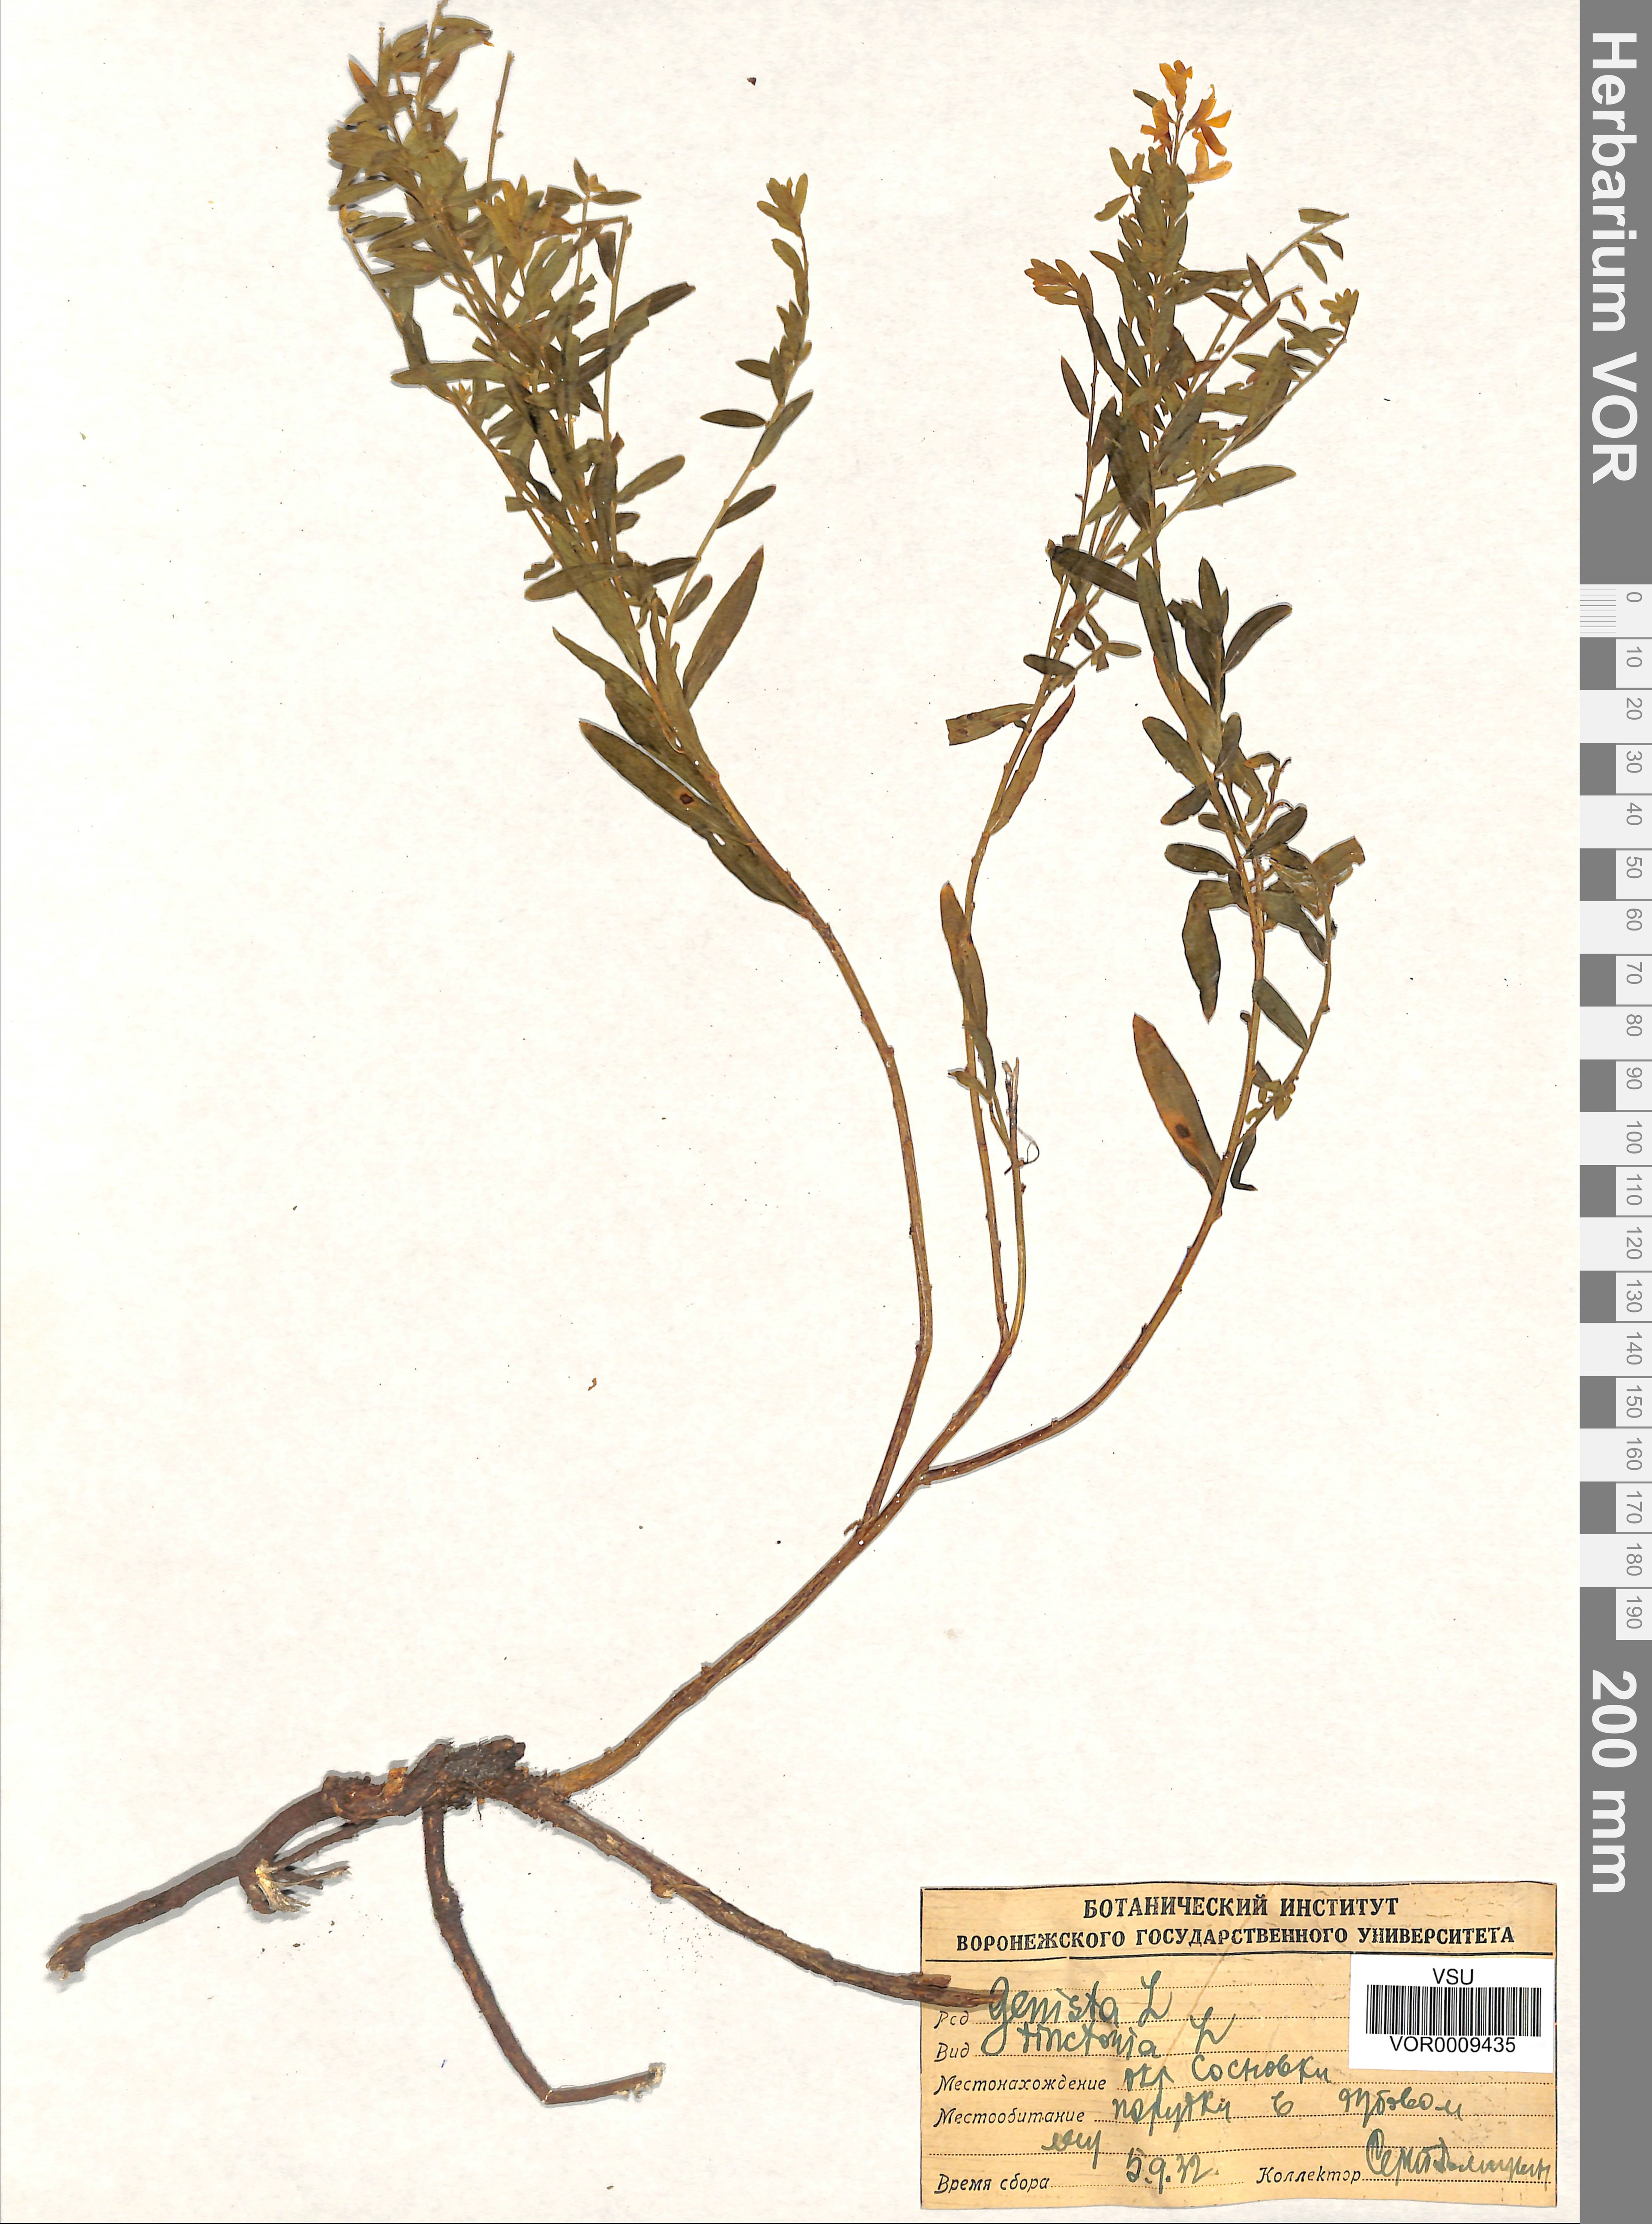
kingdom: Plantae
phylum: Tracheophyta
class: Magnoliopsida
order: Fabales
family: Fabaceae
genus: Genista
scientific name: Genista tinctoria
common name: Dyer's greenweed
